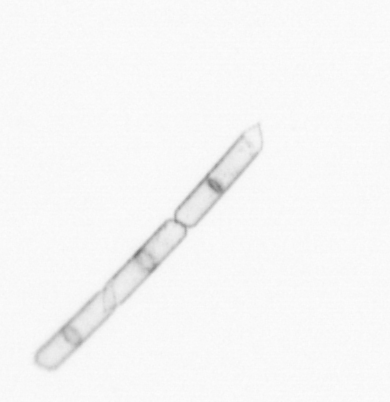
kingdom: Chromista
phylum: Ochrophyta
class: Bacillariophyceae
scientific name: Bacillariophyceae
